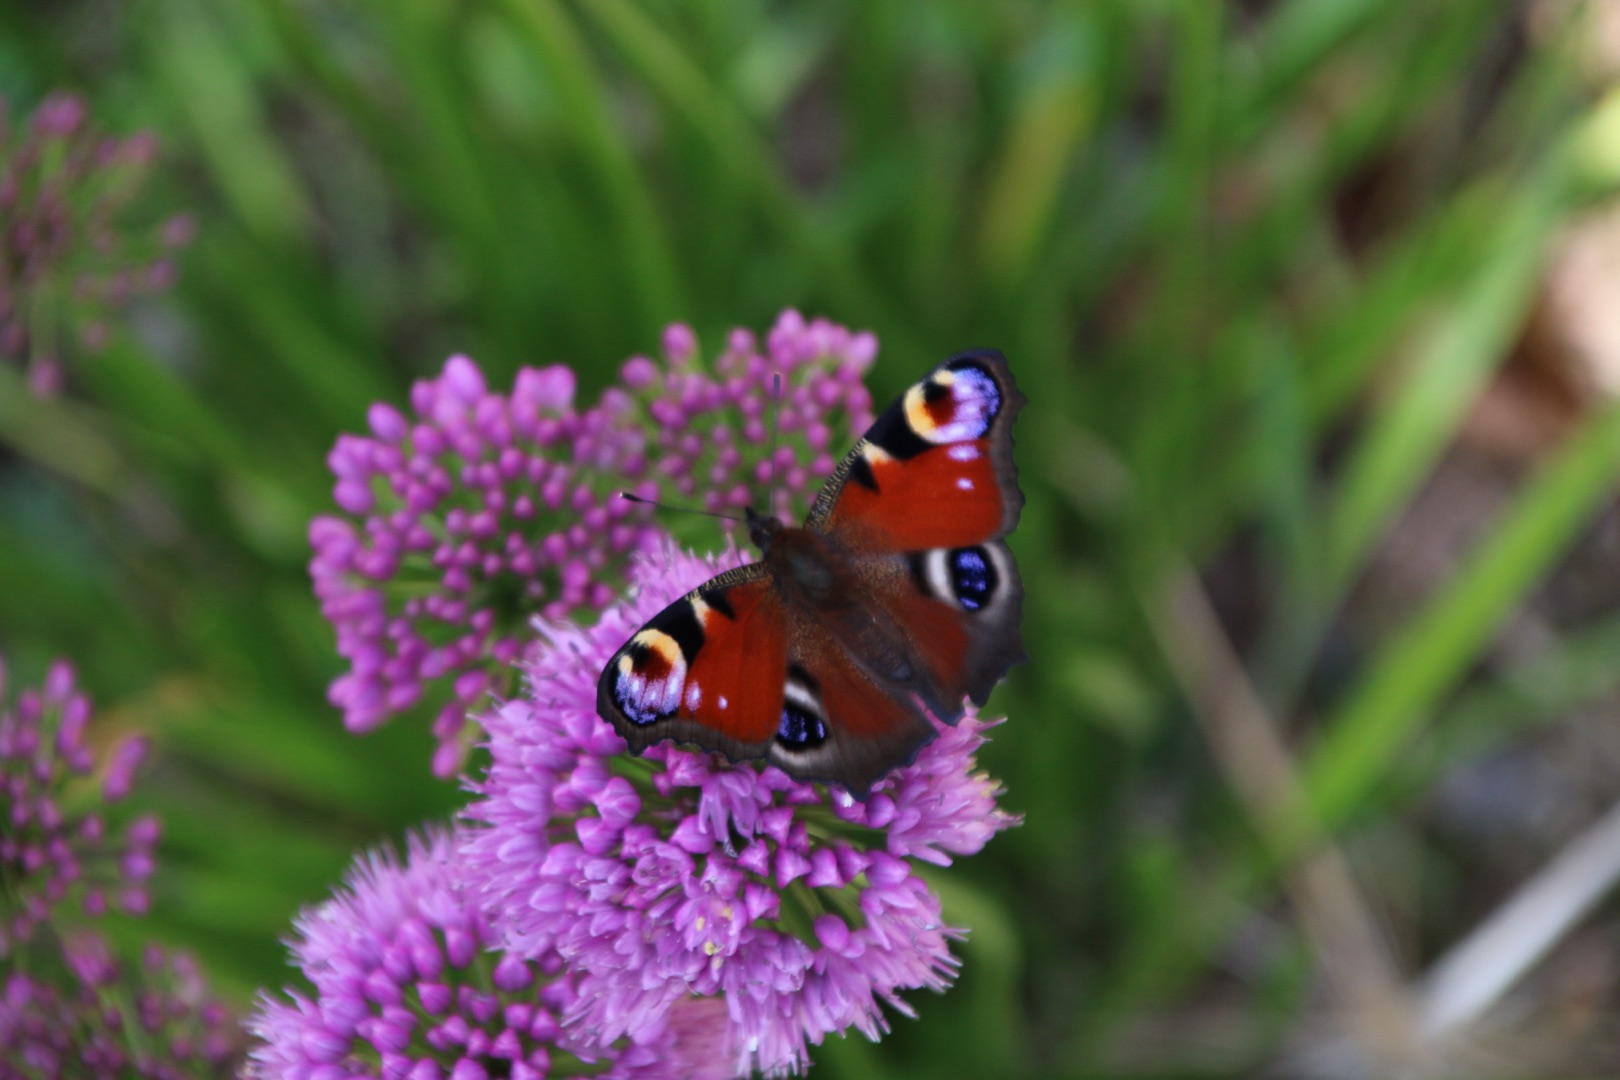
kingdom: Animalia
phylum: Arthropoda
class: Insecta
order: Lepidoptera
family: Nymphalidae
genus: Aglais
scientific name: Aglais io
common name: Dagpåfugleøje
